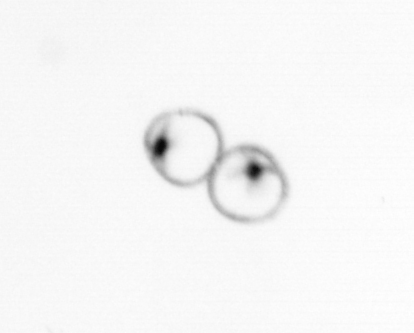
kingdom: Chromista
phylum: Myzozoa
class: Dinophyceae
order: Noctilucales
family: Noctilucaceae
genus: Noctiluca
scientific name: Noctiluca scintillans
